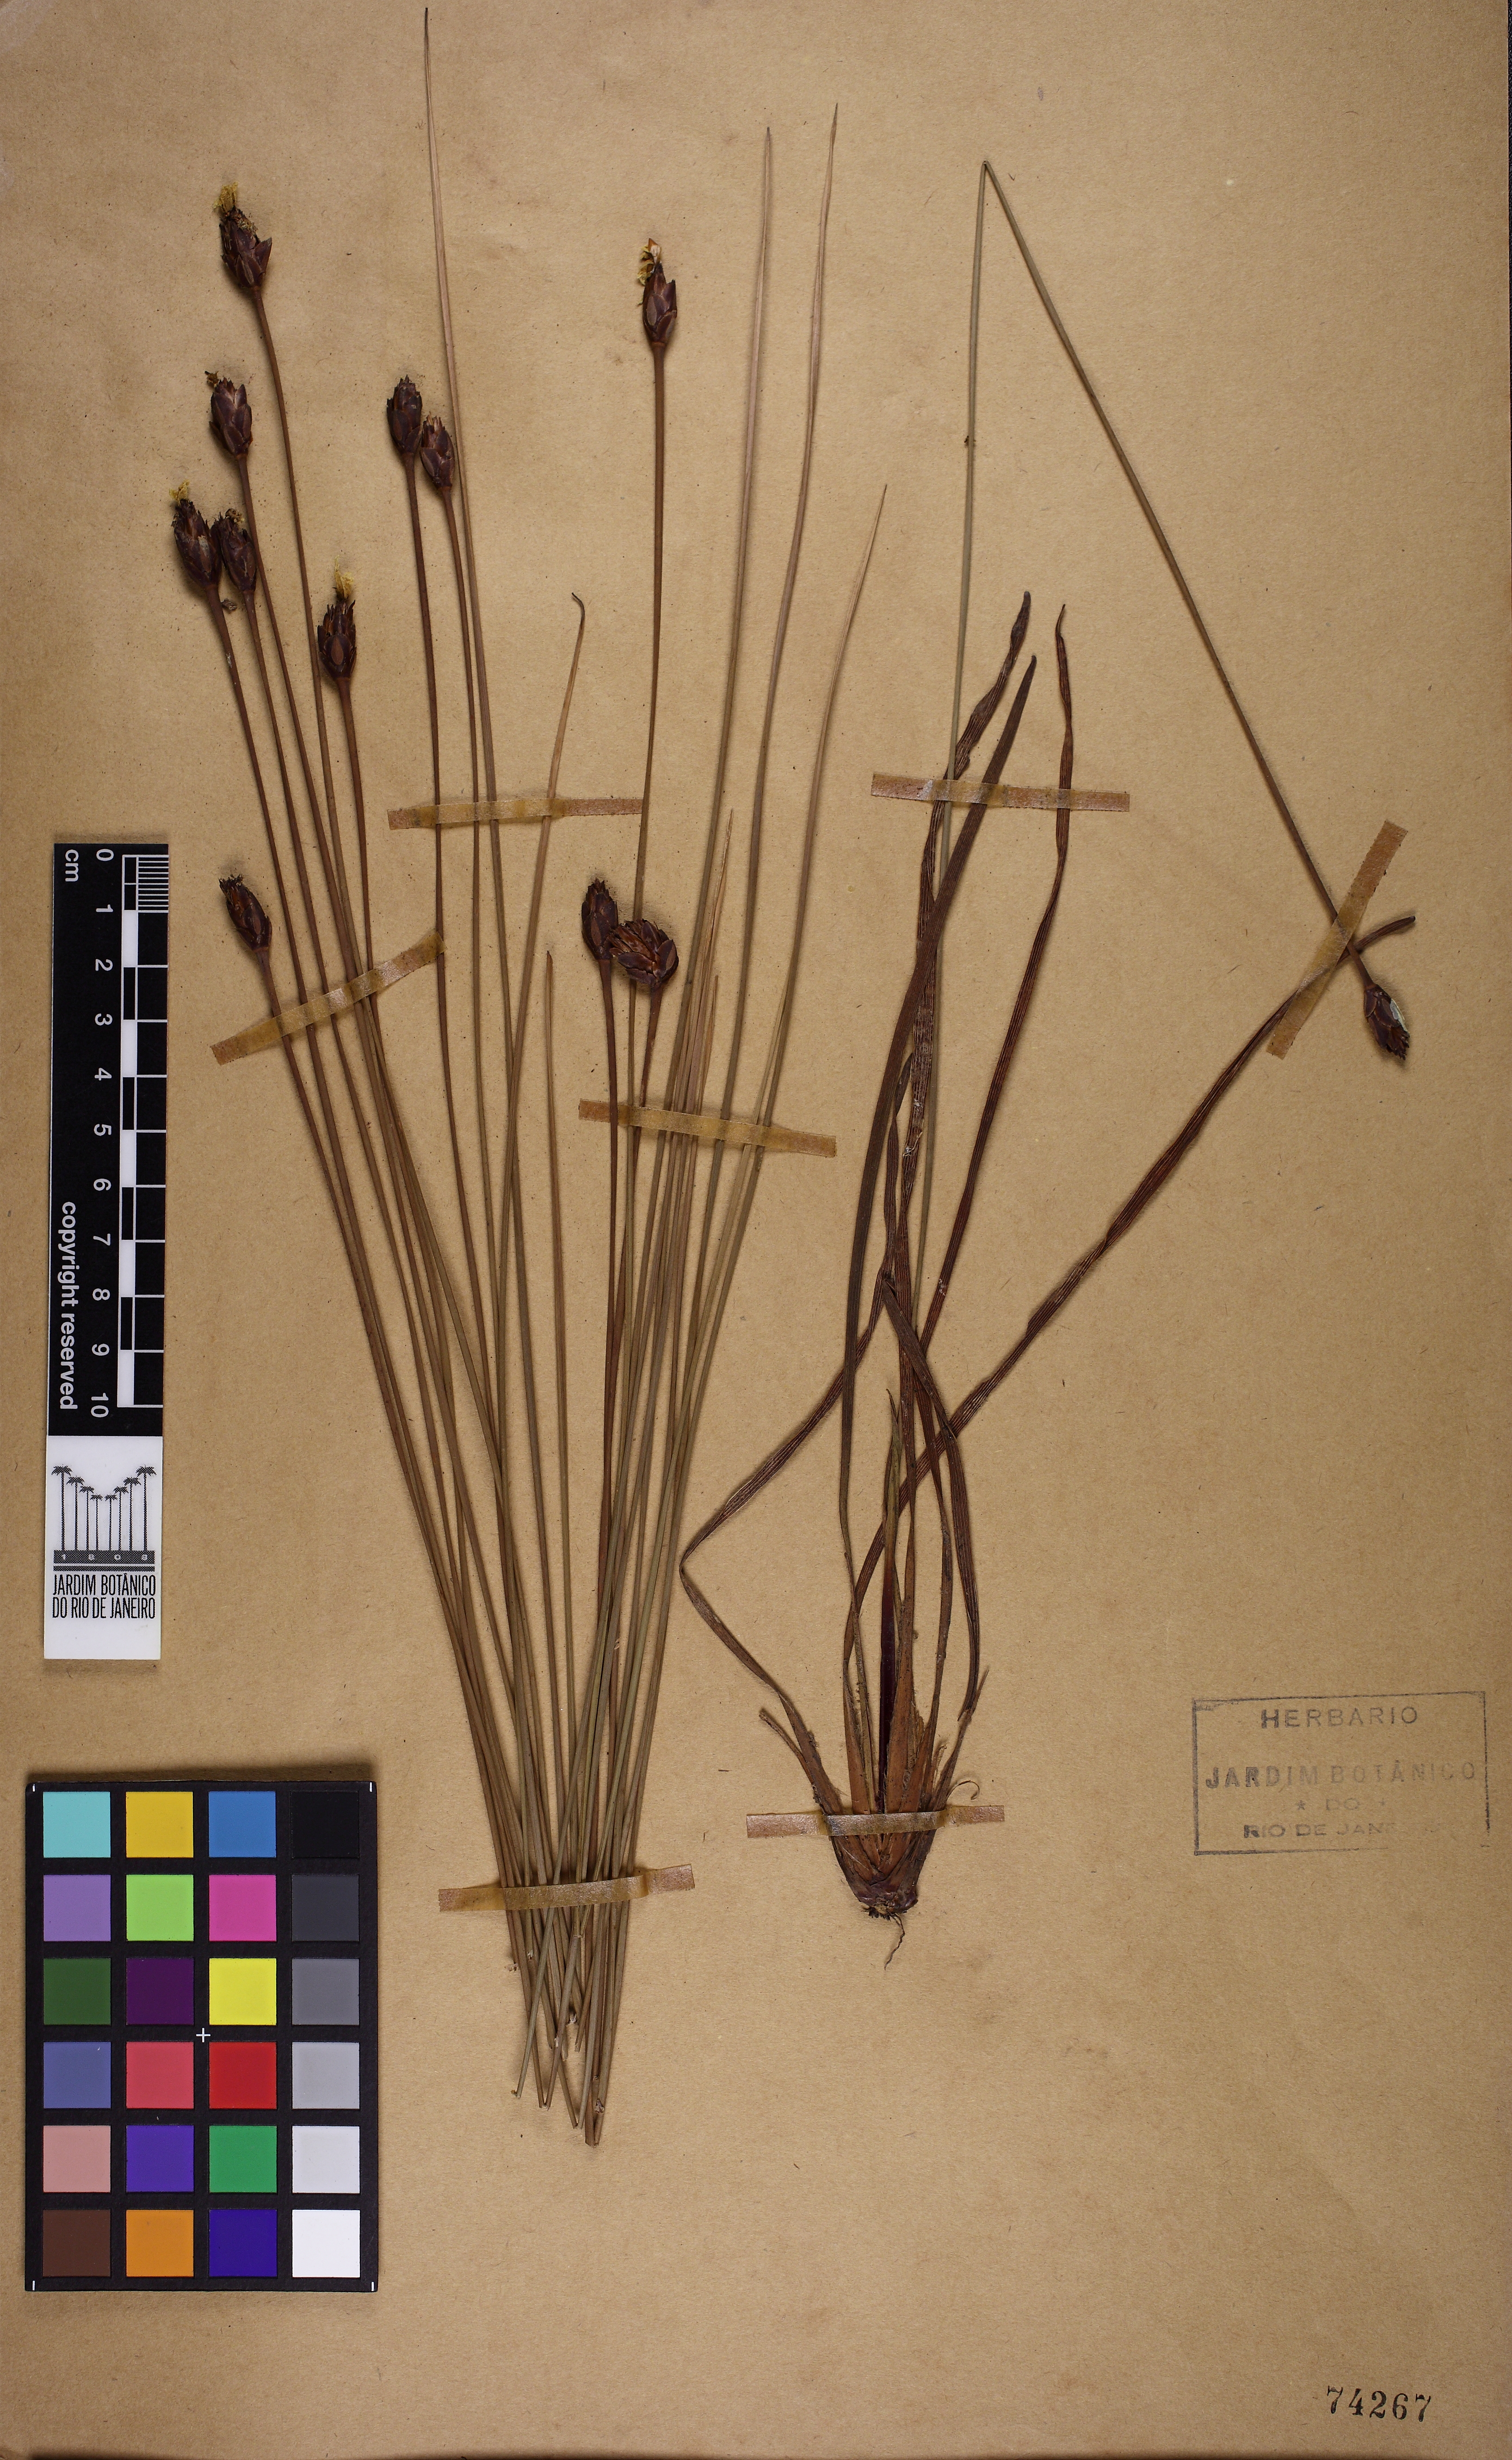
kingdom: Plantae
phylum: Tracheophyta
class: Liliopsida
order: Poales
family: Xyridaceae
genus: Xyris
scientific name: Xyris trachyphylla
